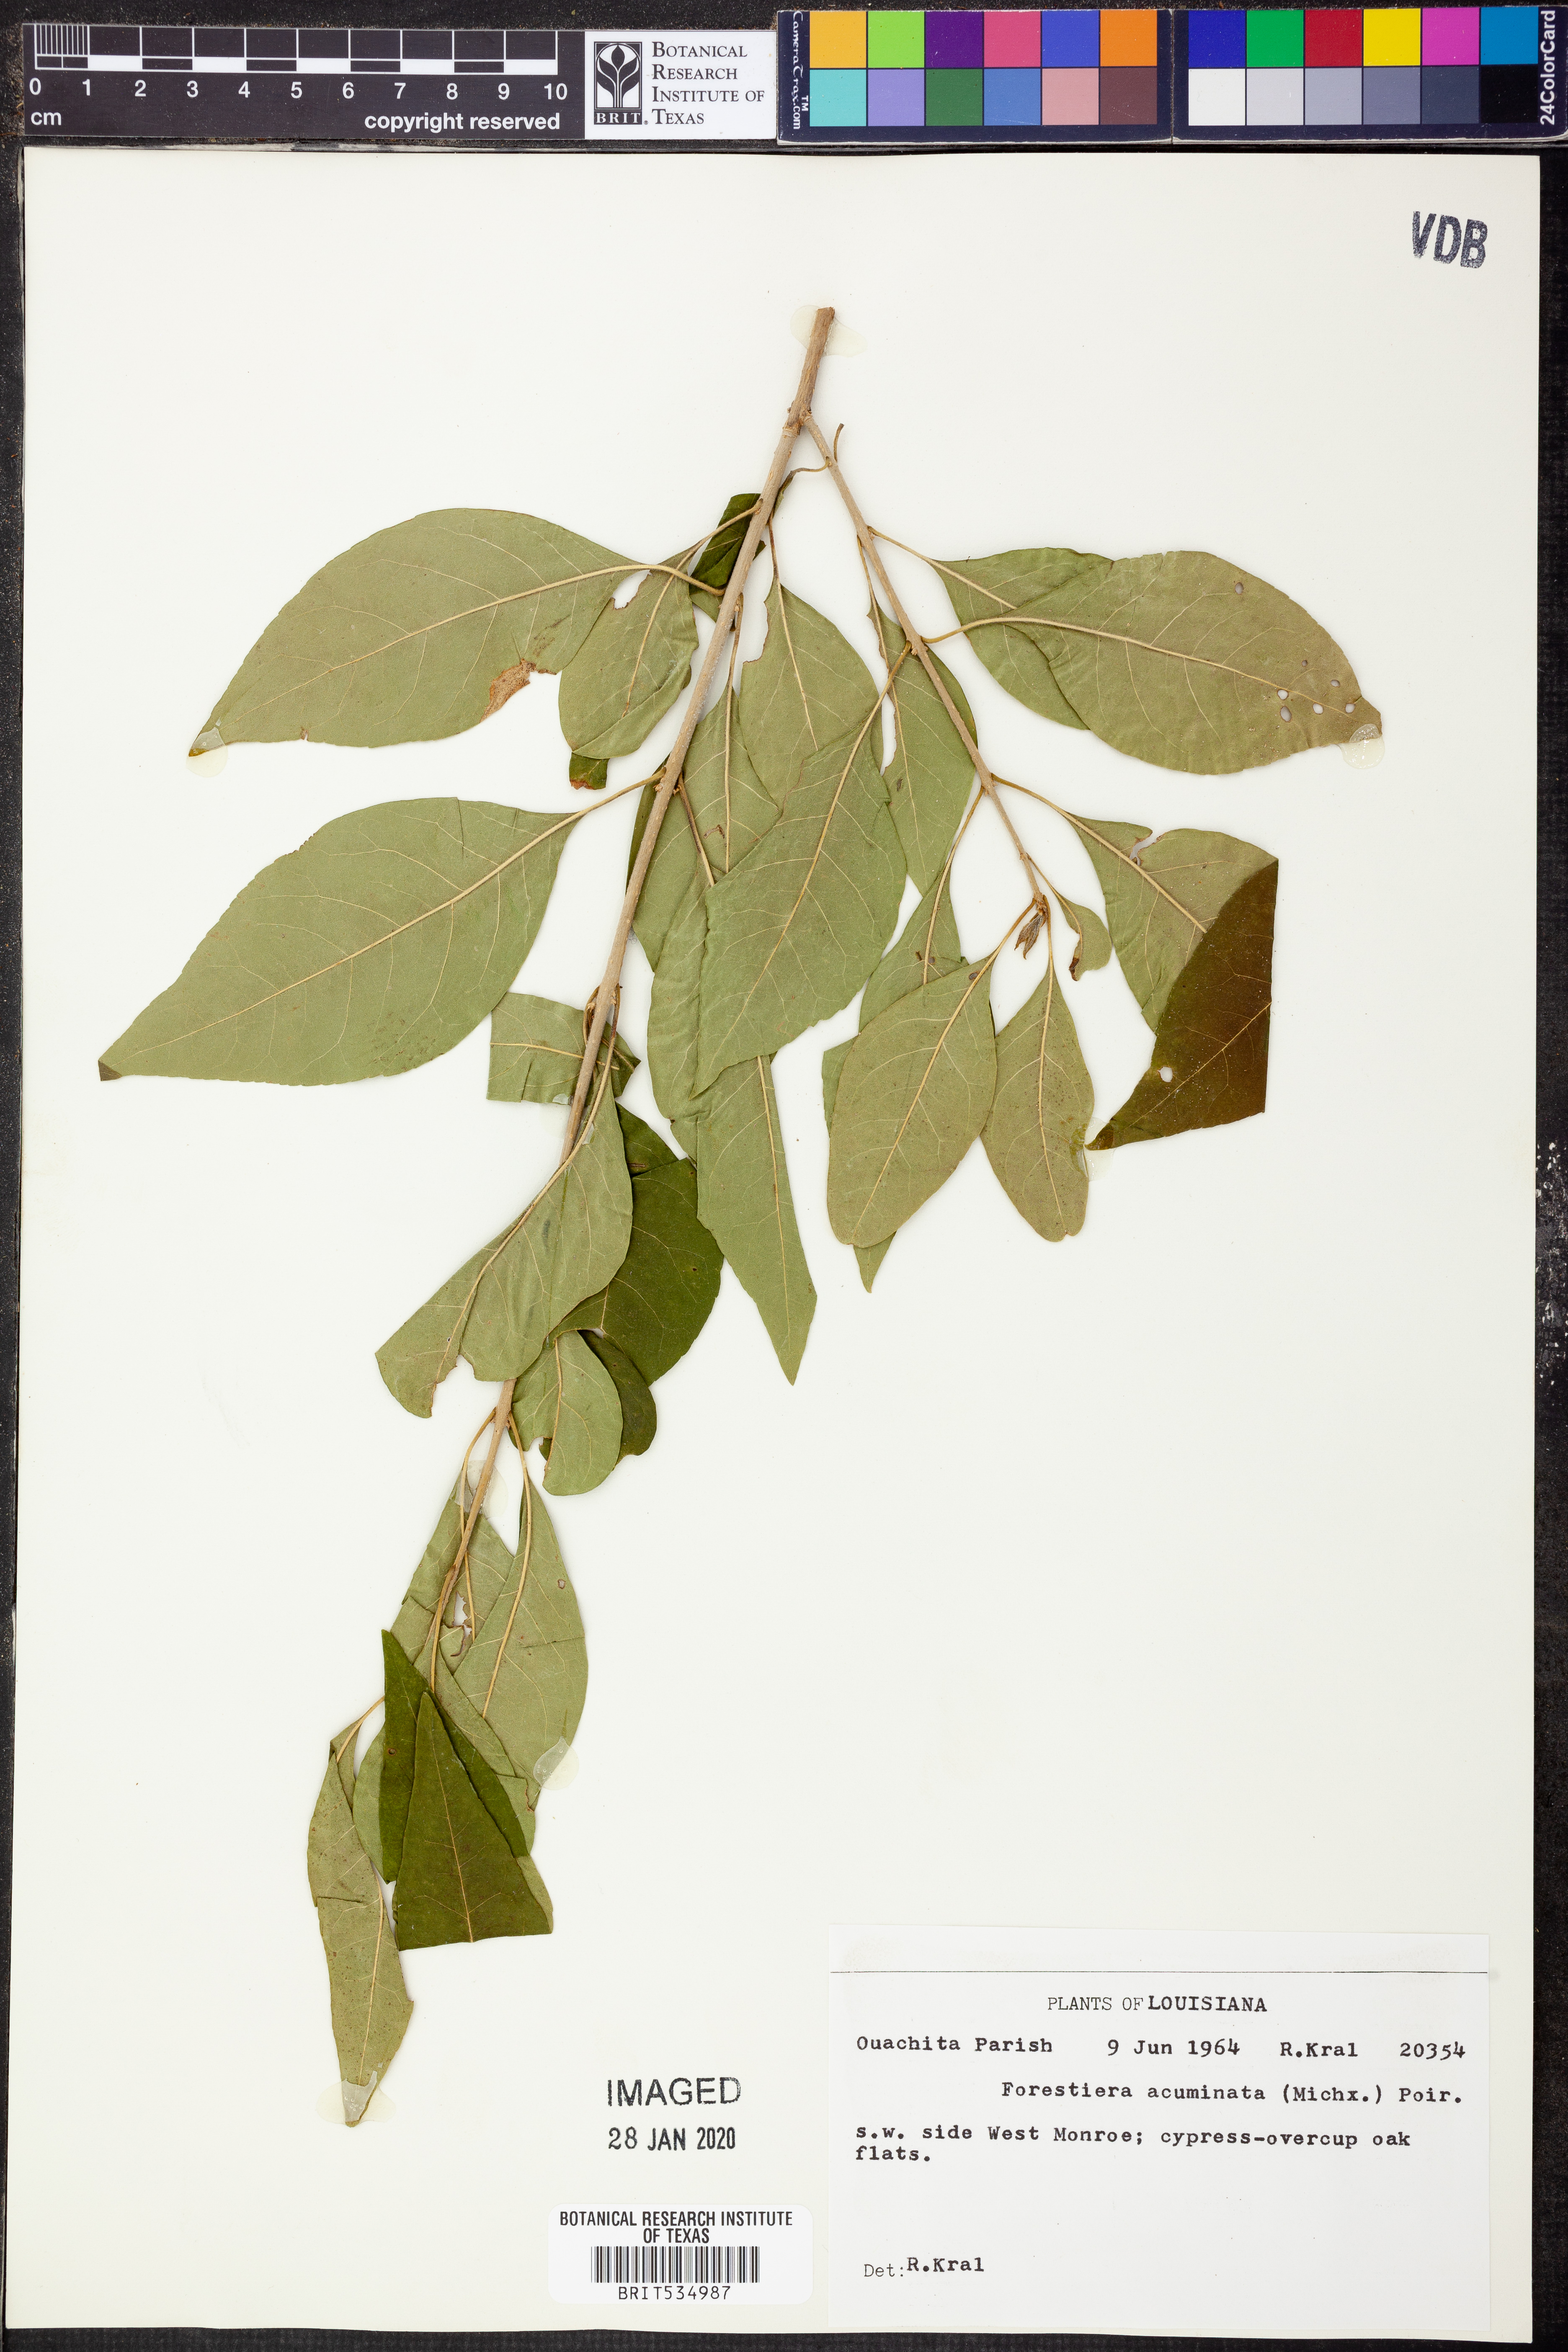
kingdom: Plantae
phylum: Tracheophyta
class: Magnoliopsida
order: Lamiales
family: Oleaceae
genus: Forestiera
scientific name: Forestiera acuminata
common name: Swamp-privet
